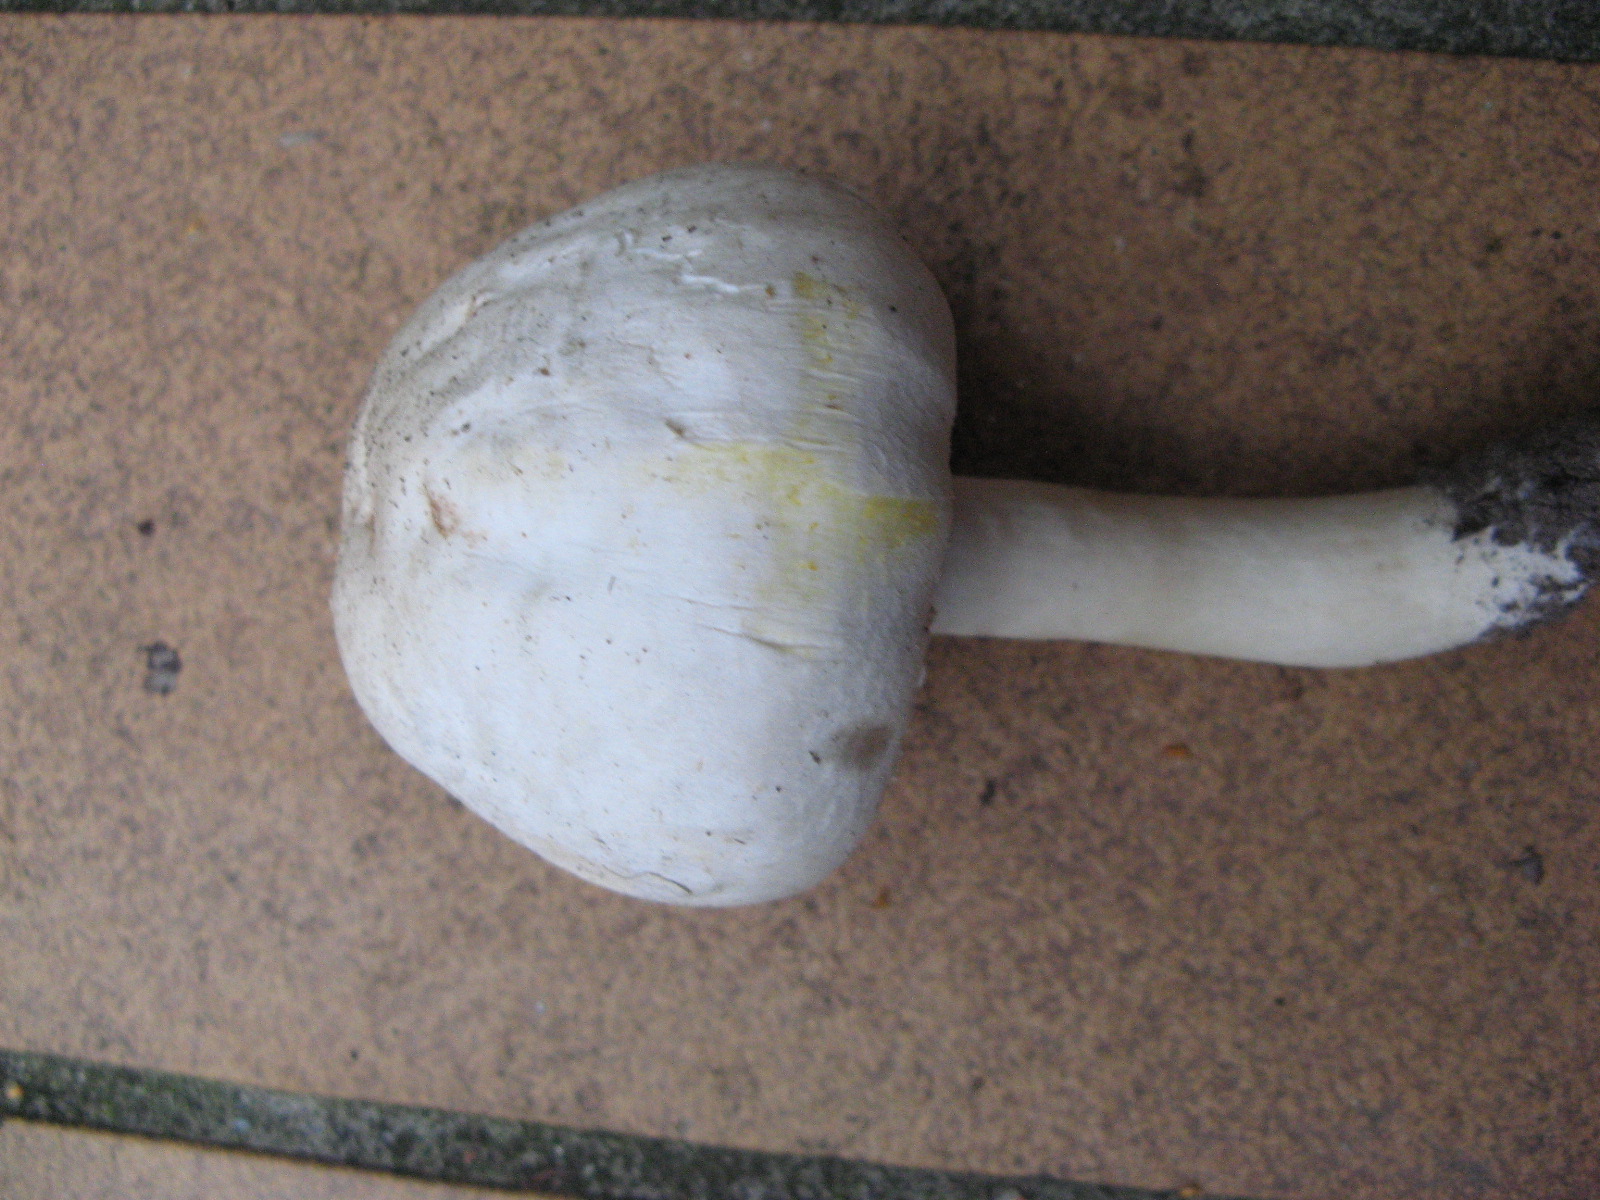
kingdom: Fungi
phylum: Basidiomycota
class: Agaricomycetes
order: Agaricales
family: Agaricaceae
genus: Agaricus
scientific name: Agaricus xanthodermus
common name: karbol-champignon
